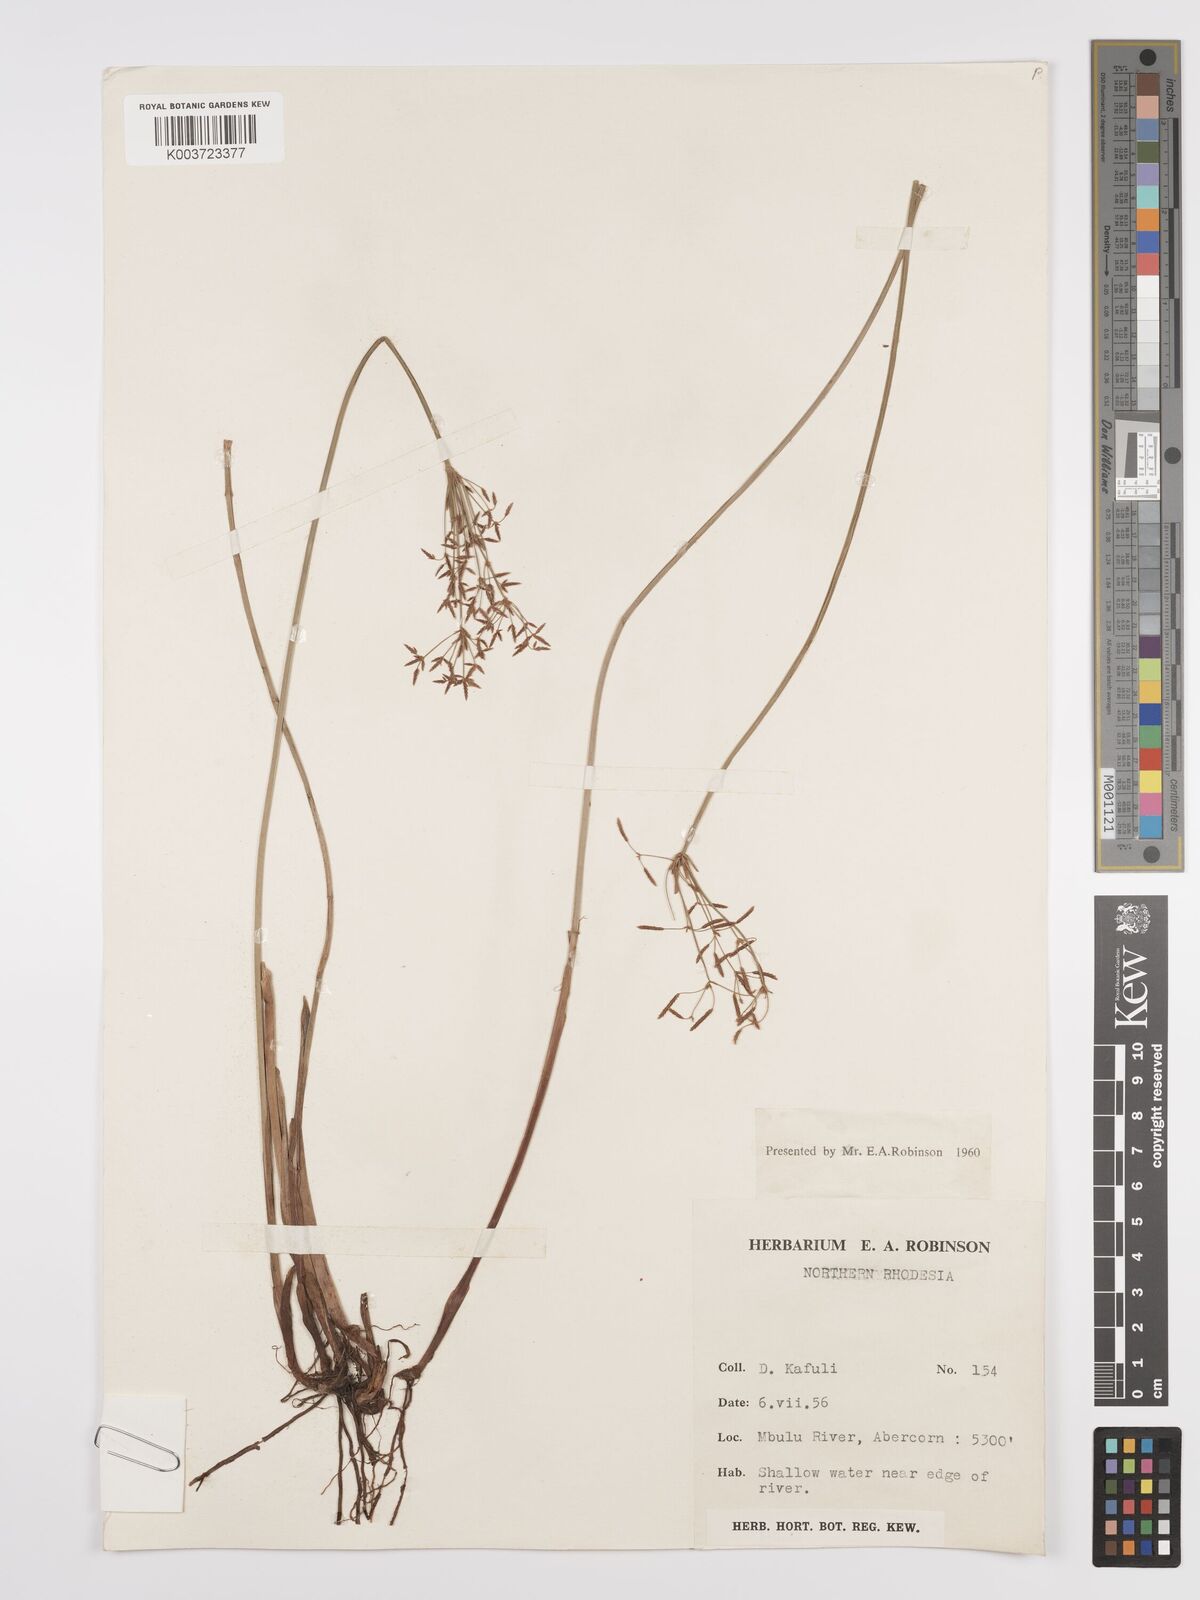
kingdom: Plantae
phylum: Tracheophyta
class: Liliopsida
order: Poales
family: Cyperaceae
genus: Cyperus
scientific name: Cyperus denudatus
